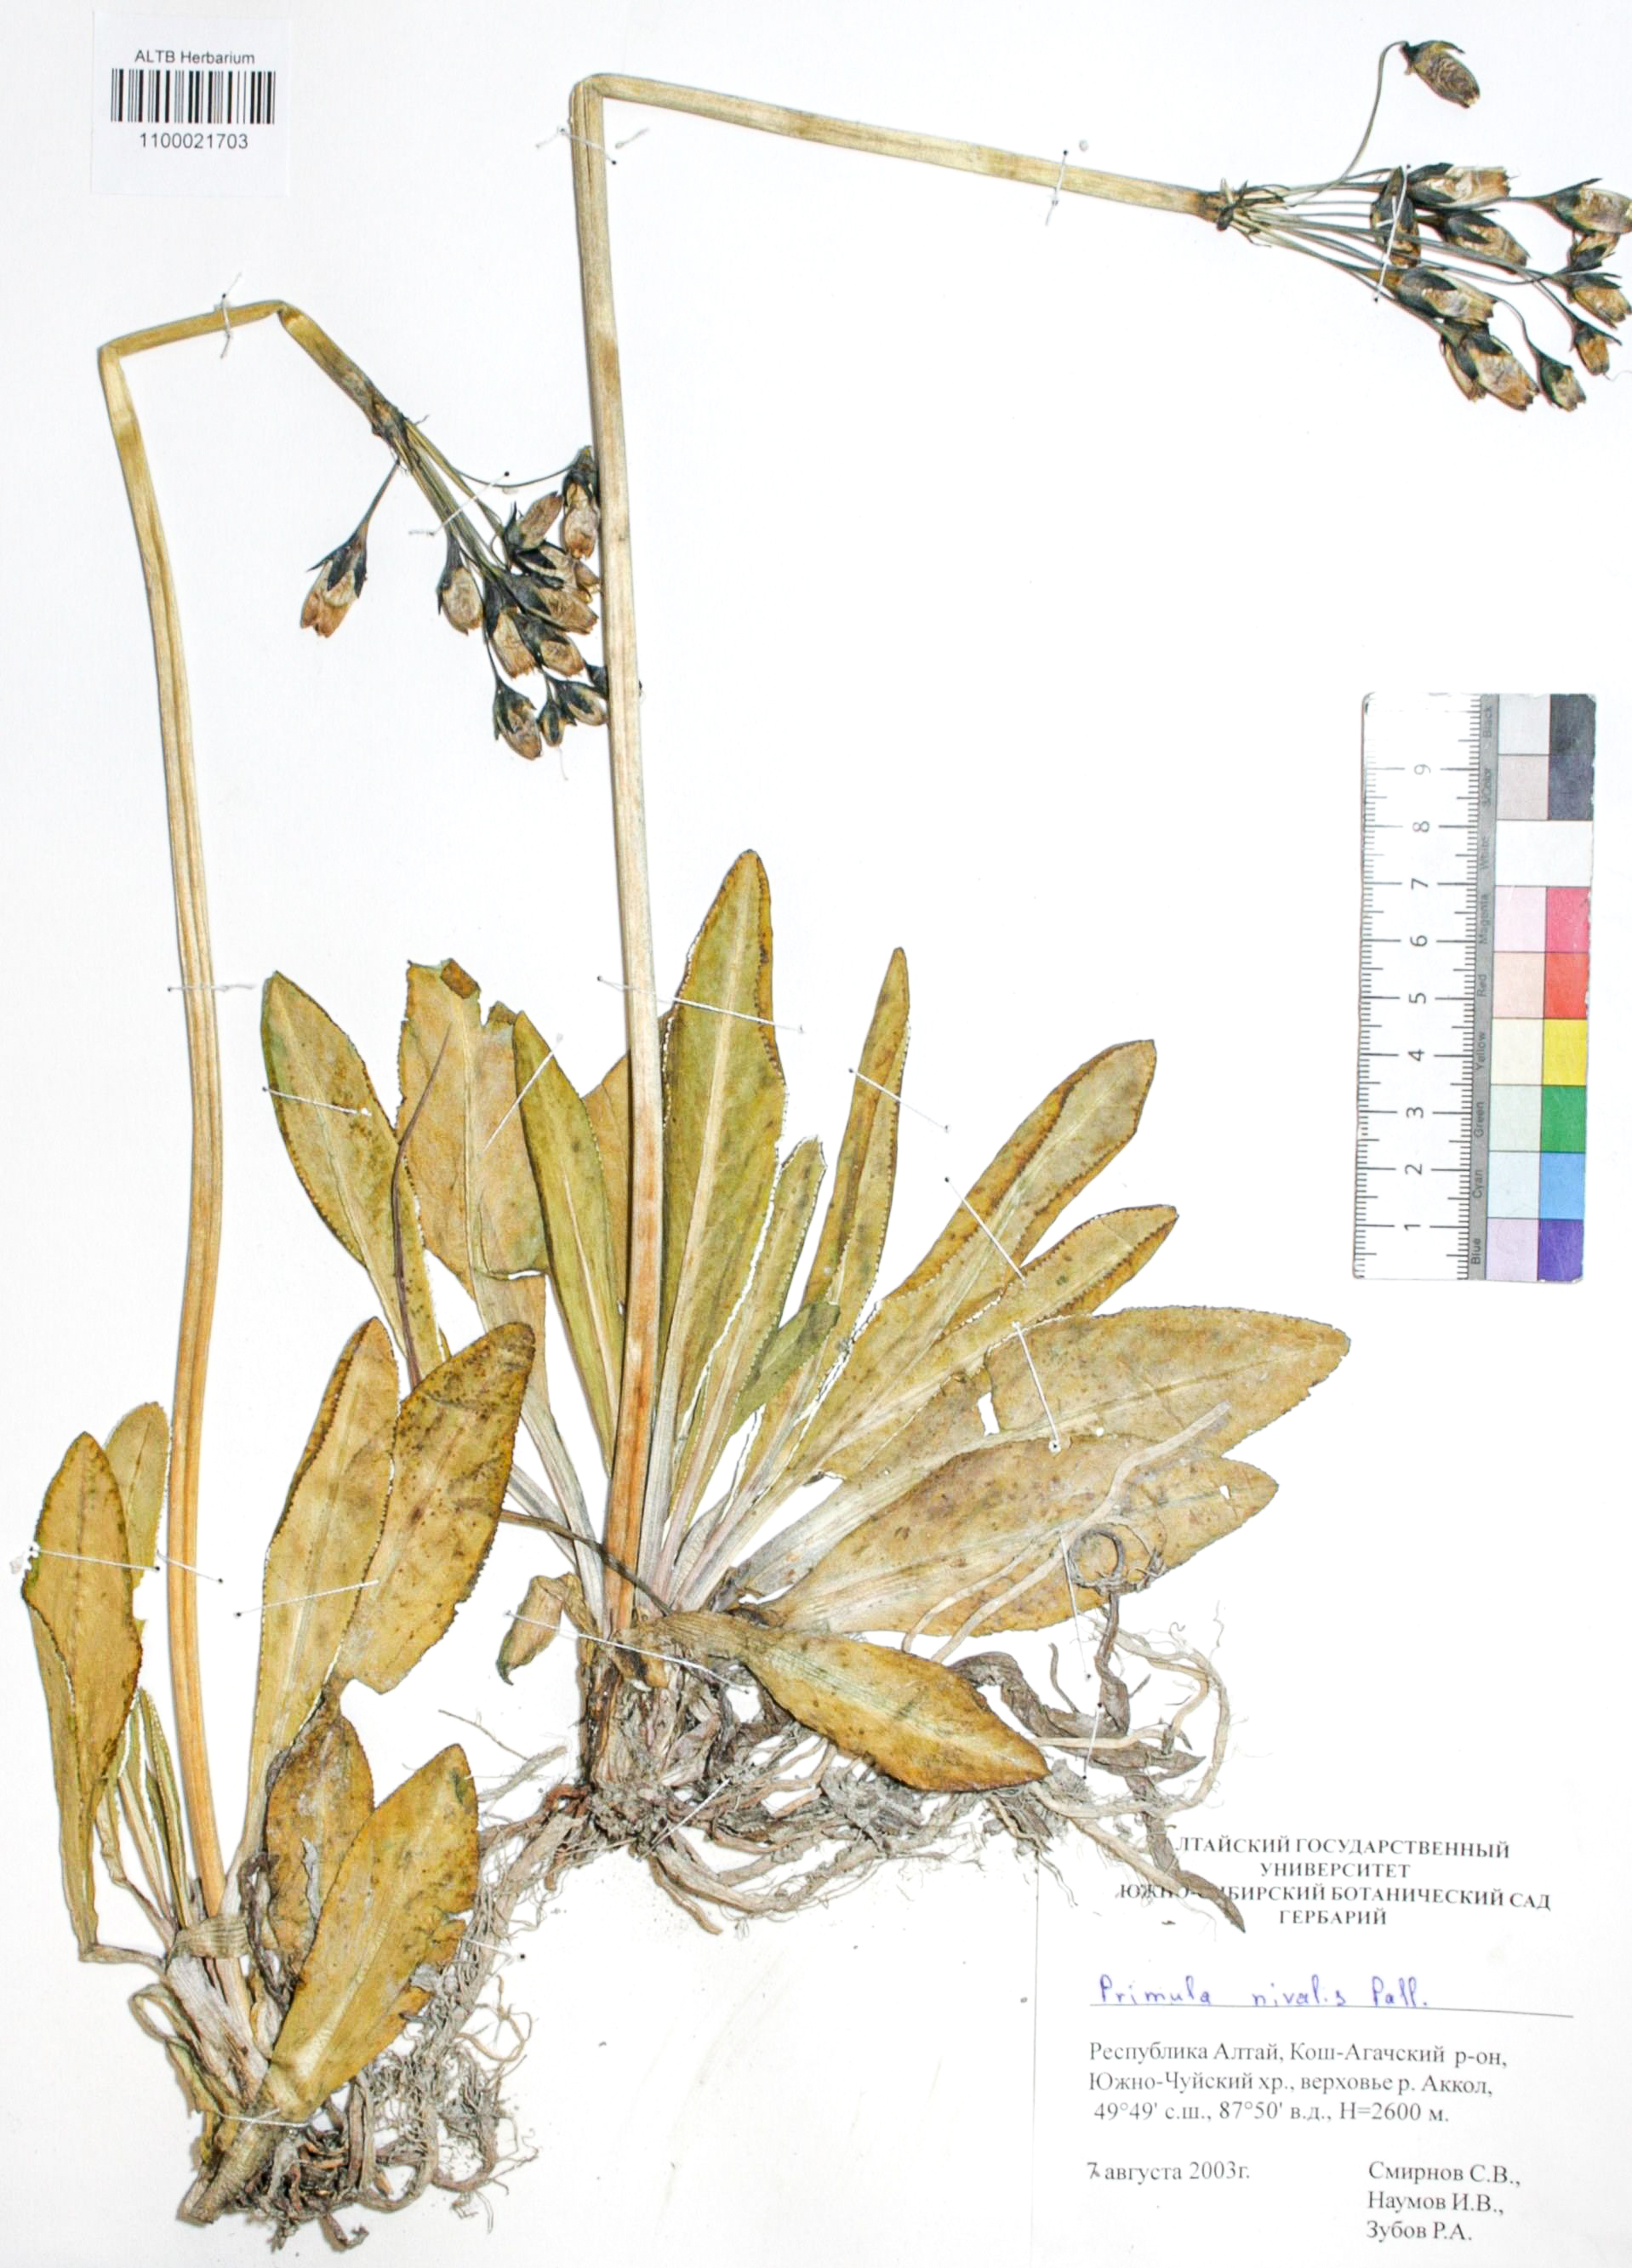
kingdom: Plantae
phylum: Tracheophyta
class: Magnoliopsida
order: Ericales
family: Primulaceae
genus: Primula
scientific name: Primula nivalis
